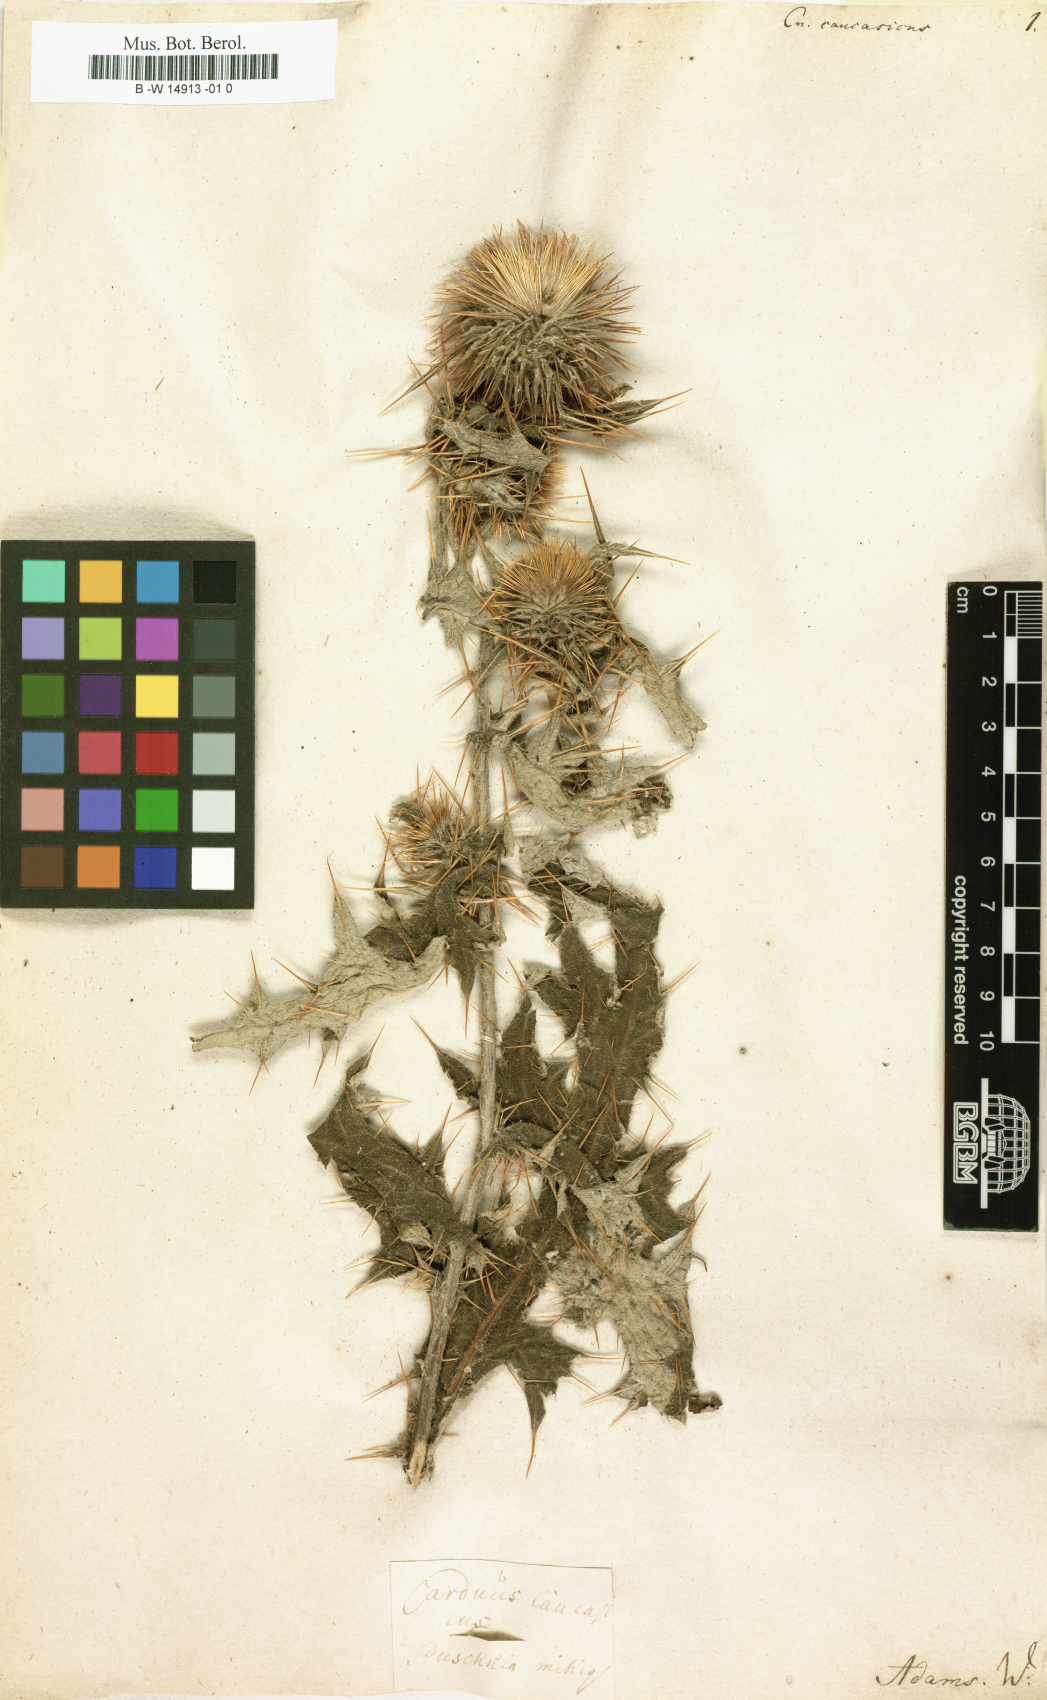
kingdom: Plantae
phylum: Tracheophyta
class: Magnoliopsida
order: Asterales
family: Asteraceae
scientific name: Asteraceae
